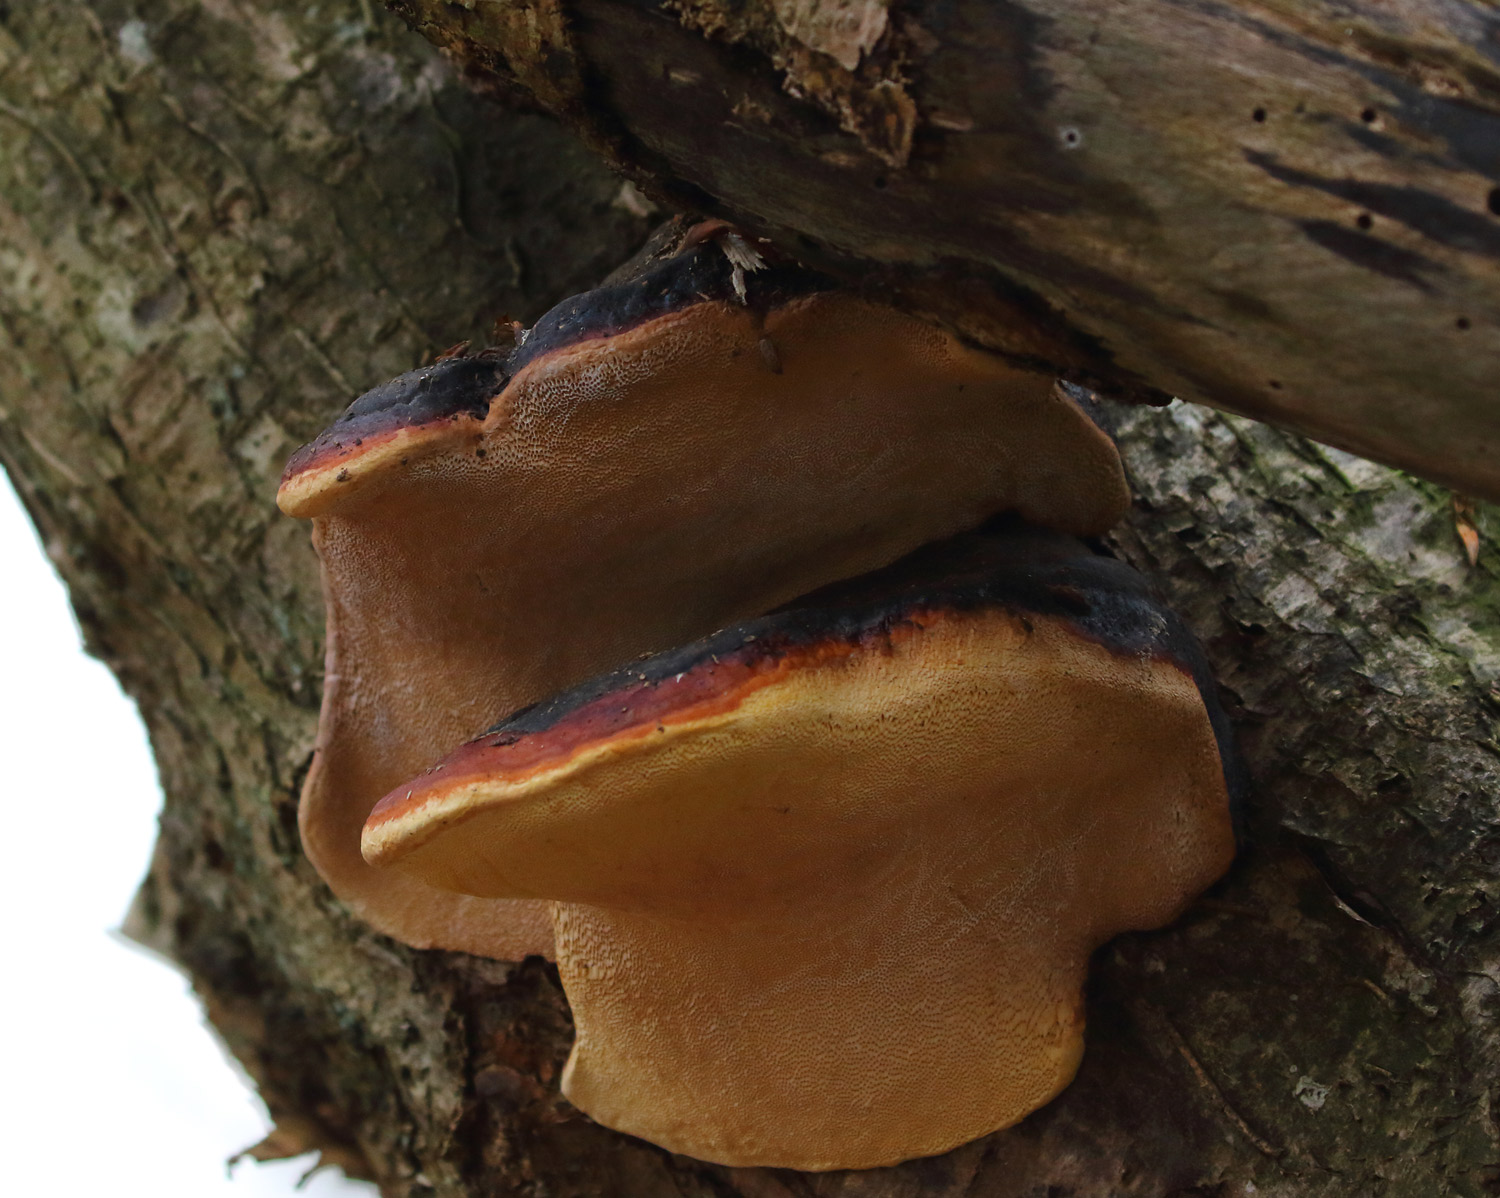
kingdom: Fungi
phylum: Basidiomycota
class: Agaricomycetes
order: Polyporales
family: Fomitopsidaceae
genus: Fomitopsis
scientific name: Fomitopsis pinicola
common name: randbæltet hovporesvamp
